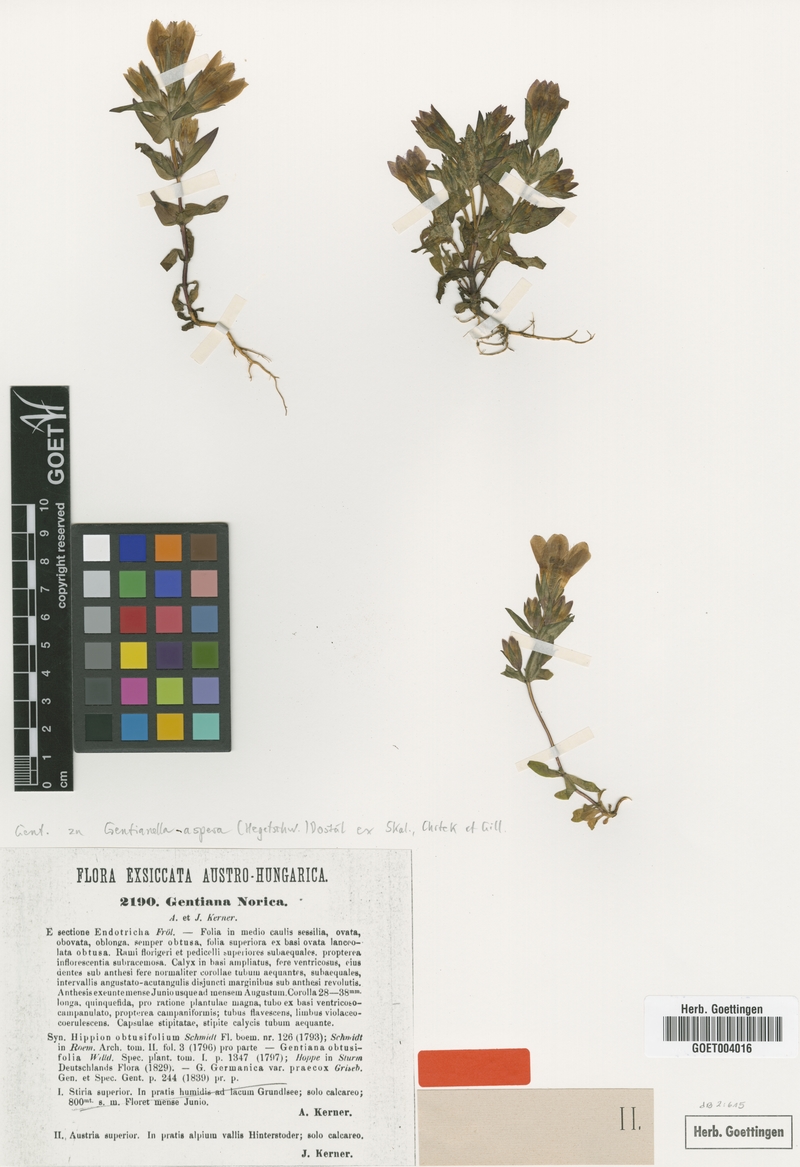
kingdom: Plantae
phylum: Tracheophyta
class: Magnoliopsida
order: Gentianales
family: Gentianaceae
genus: Gentianella
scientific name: Gentianella obtusifolia
